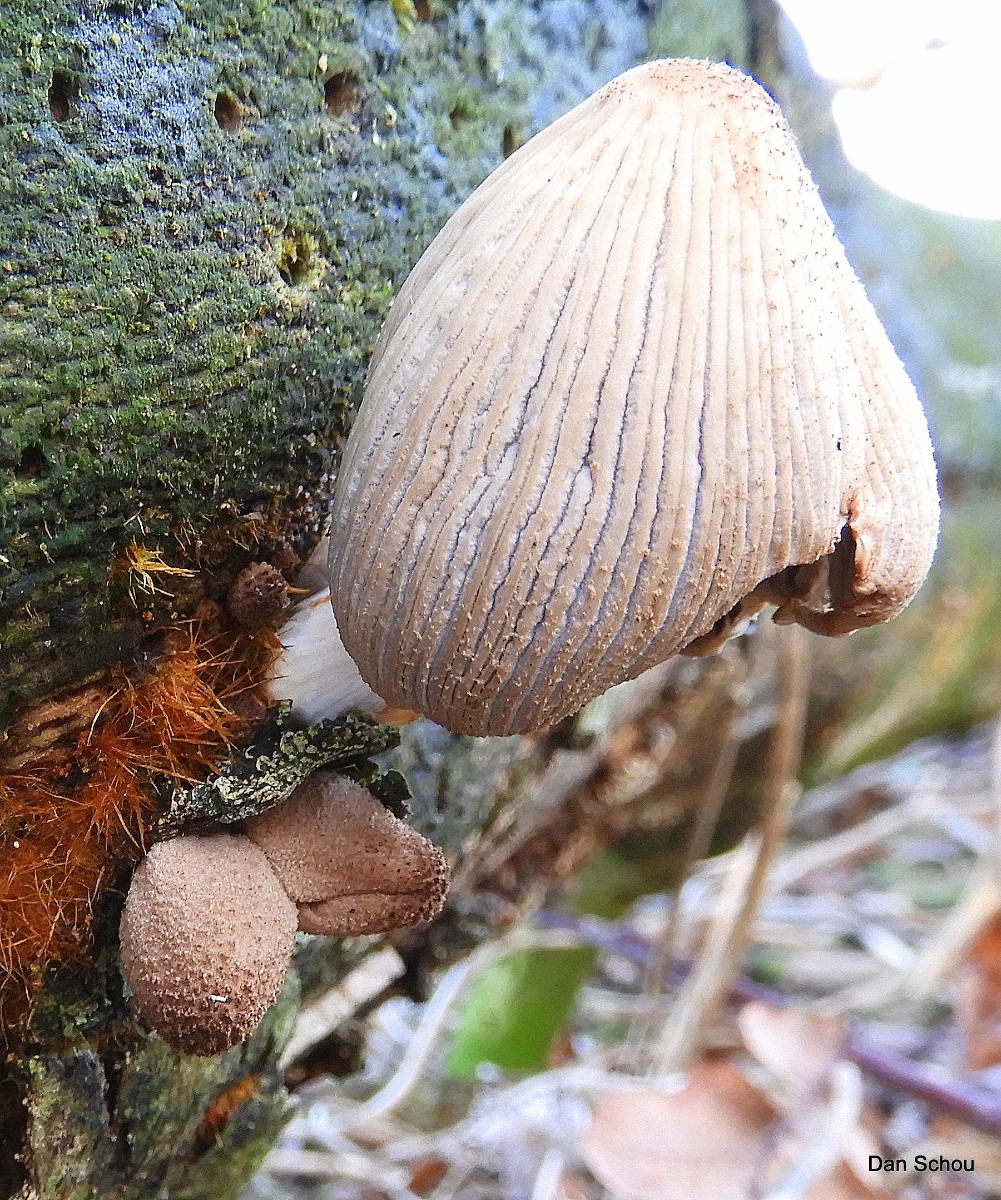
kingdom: Fungi
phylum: Basidiomycota
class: Agaricomycetes
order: Agaricales
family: Psathyrellaceae
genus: Coprinellus
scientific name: Coprinellus
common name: blækhat
